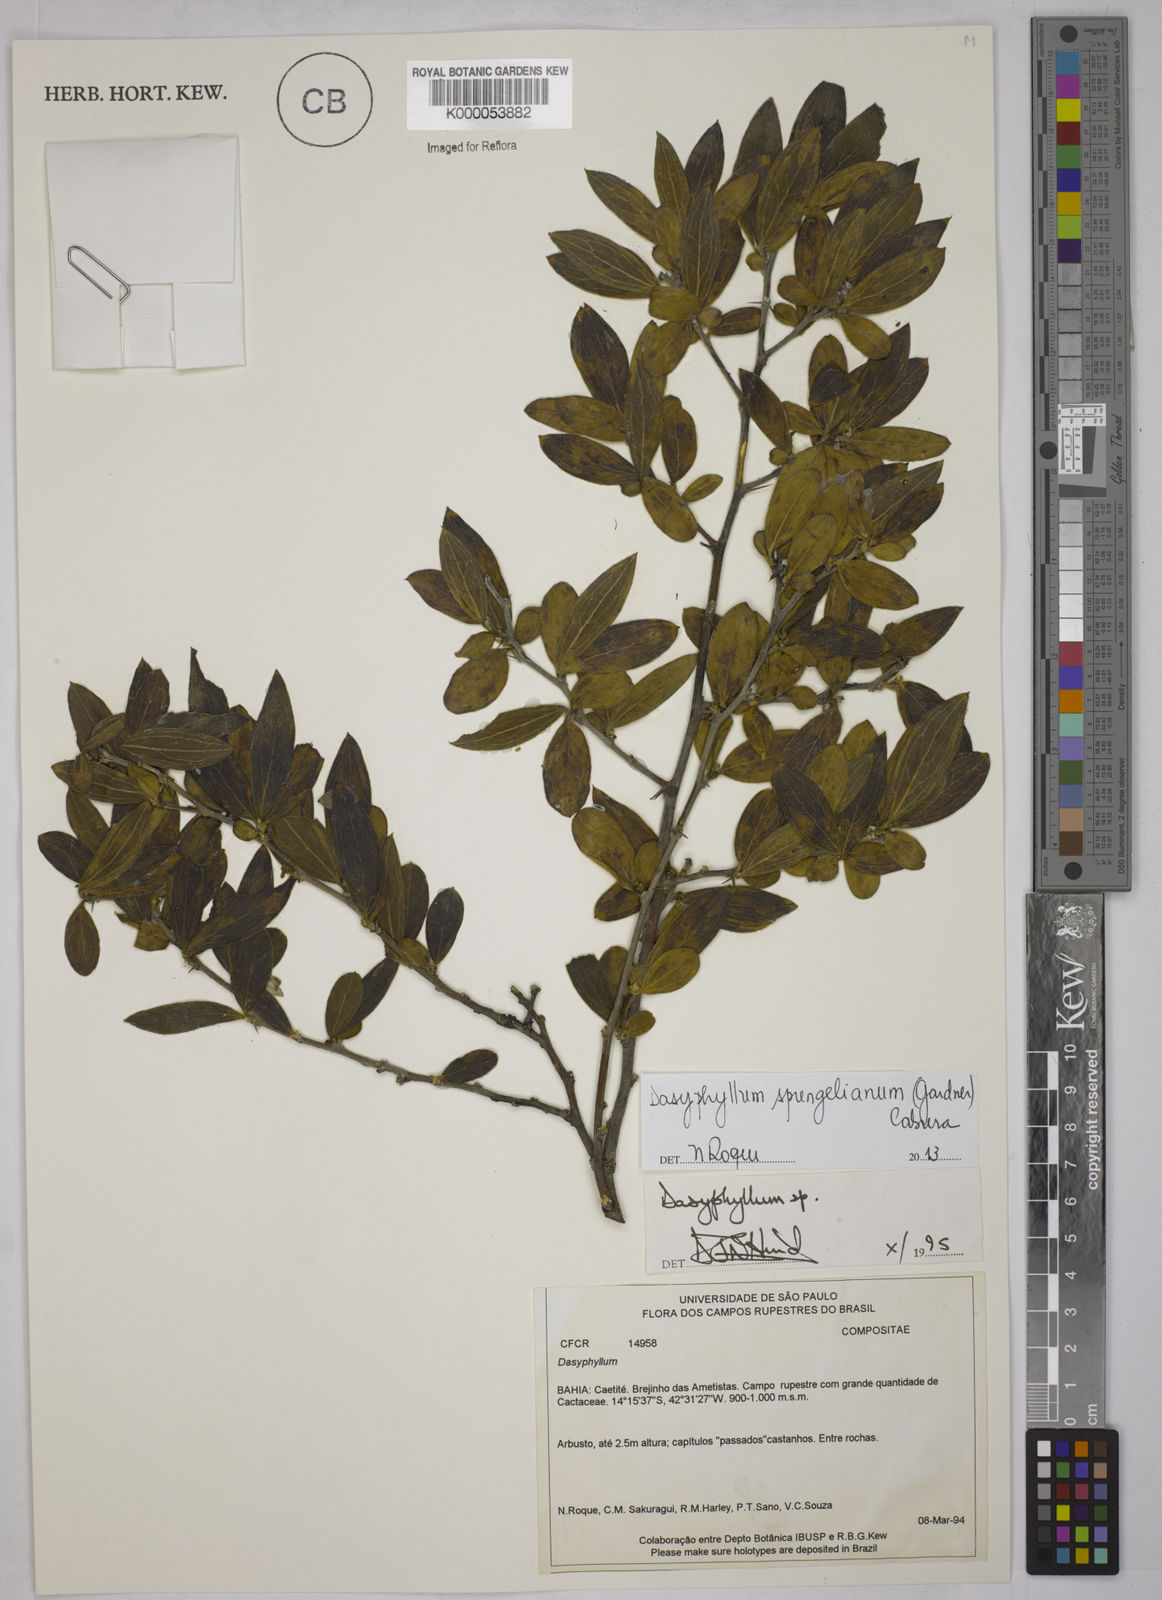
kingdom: Plantae
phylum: Tracheophyta
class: Magnoliopsida
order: Asterales
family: Asteraceae
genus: Dasyphyllum
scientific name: Dasyphyllum
